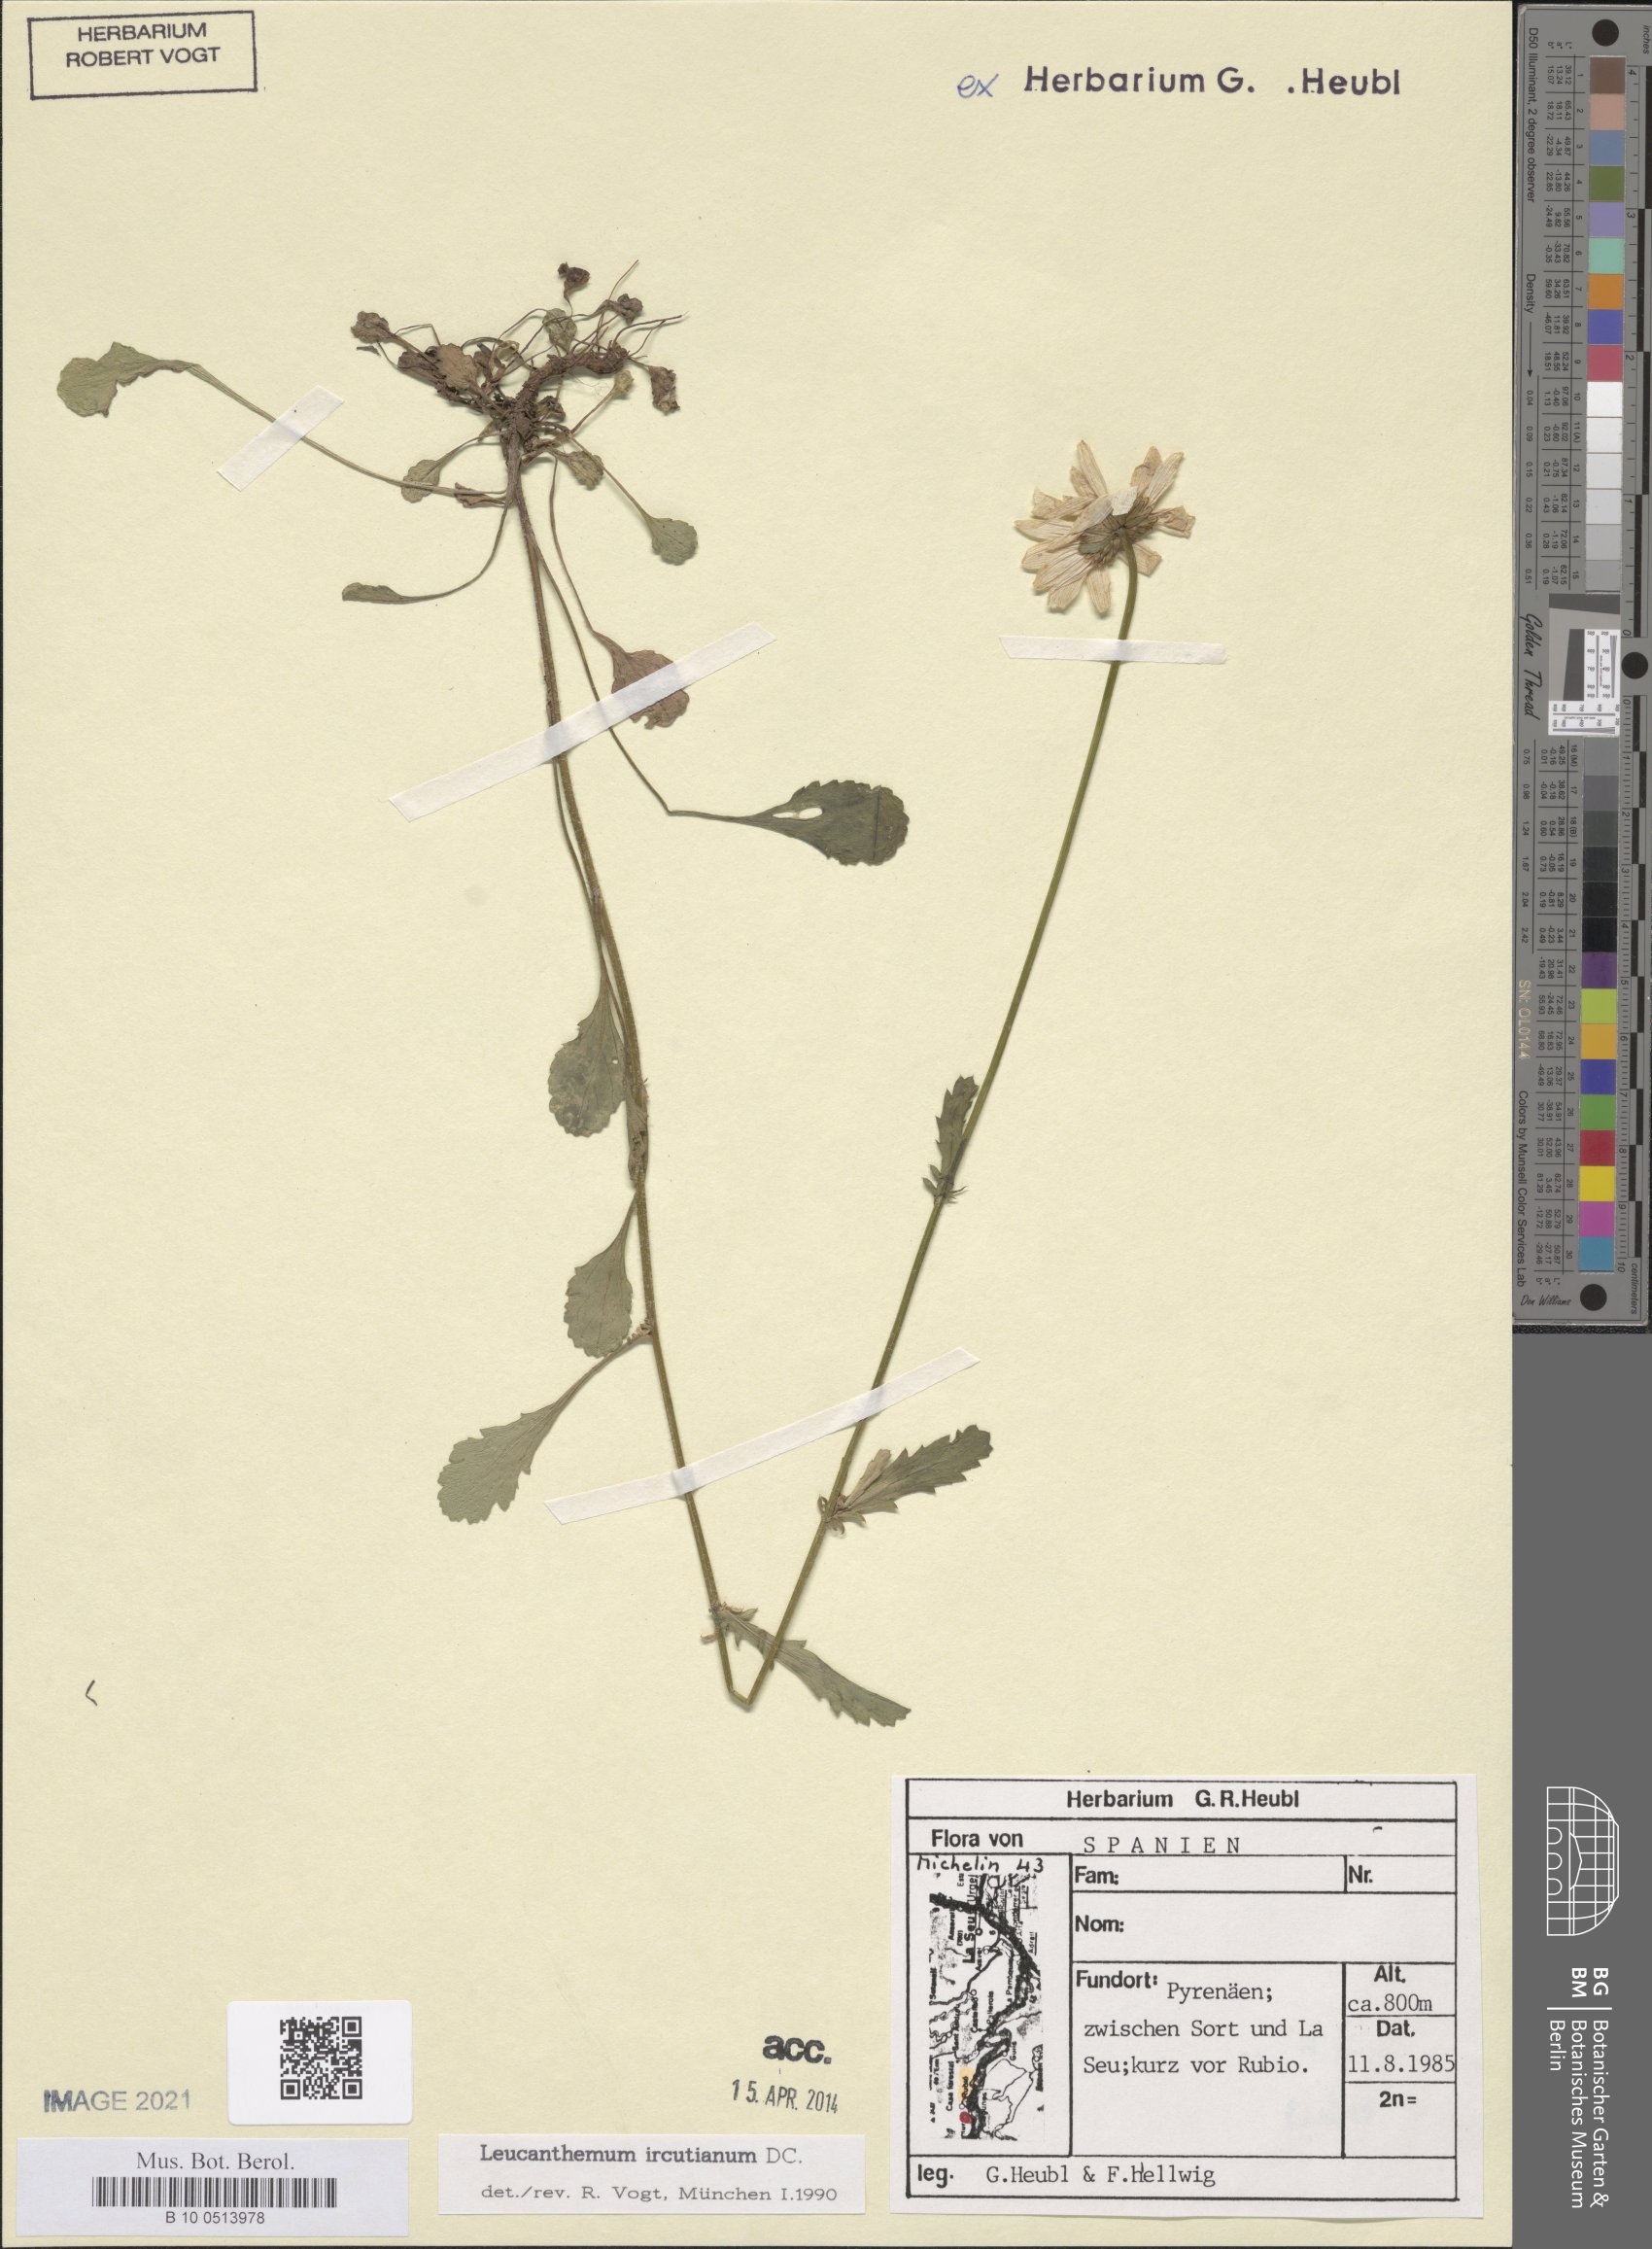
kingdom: Plantae
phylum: Tracheophyta
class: Magnoliopsida
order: Asterales
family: Asteraceae
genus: Leucanthemum
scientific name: Leucanthemum ircutianum
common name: Daisy
